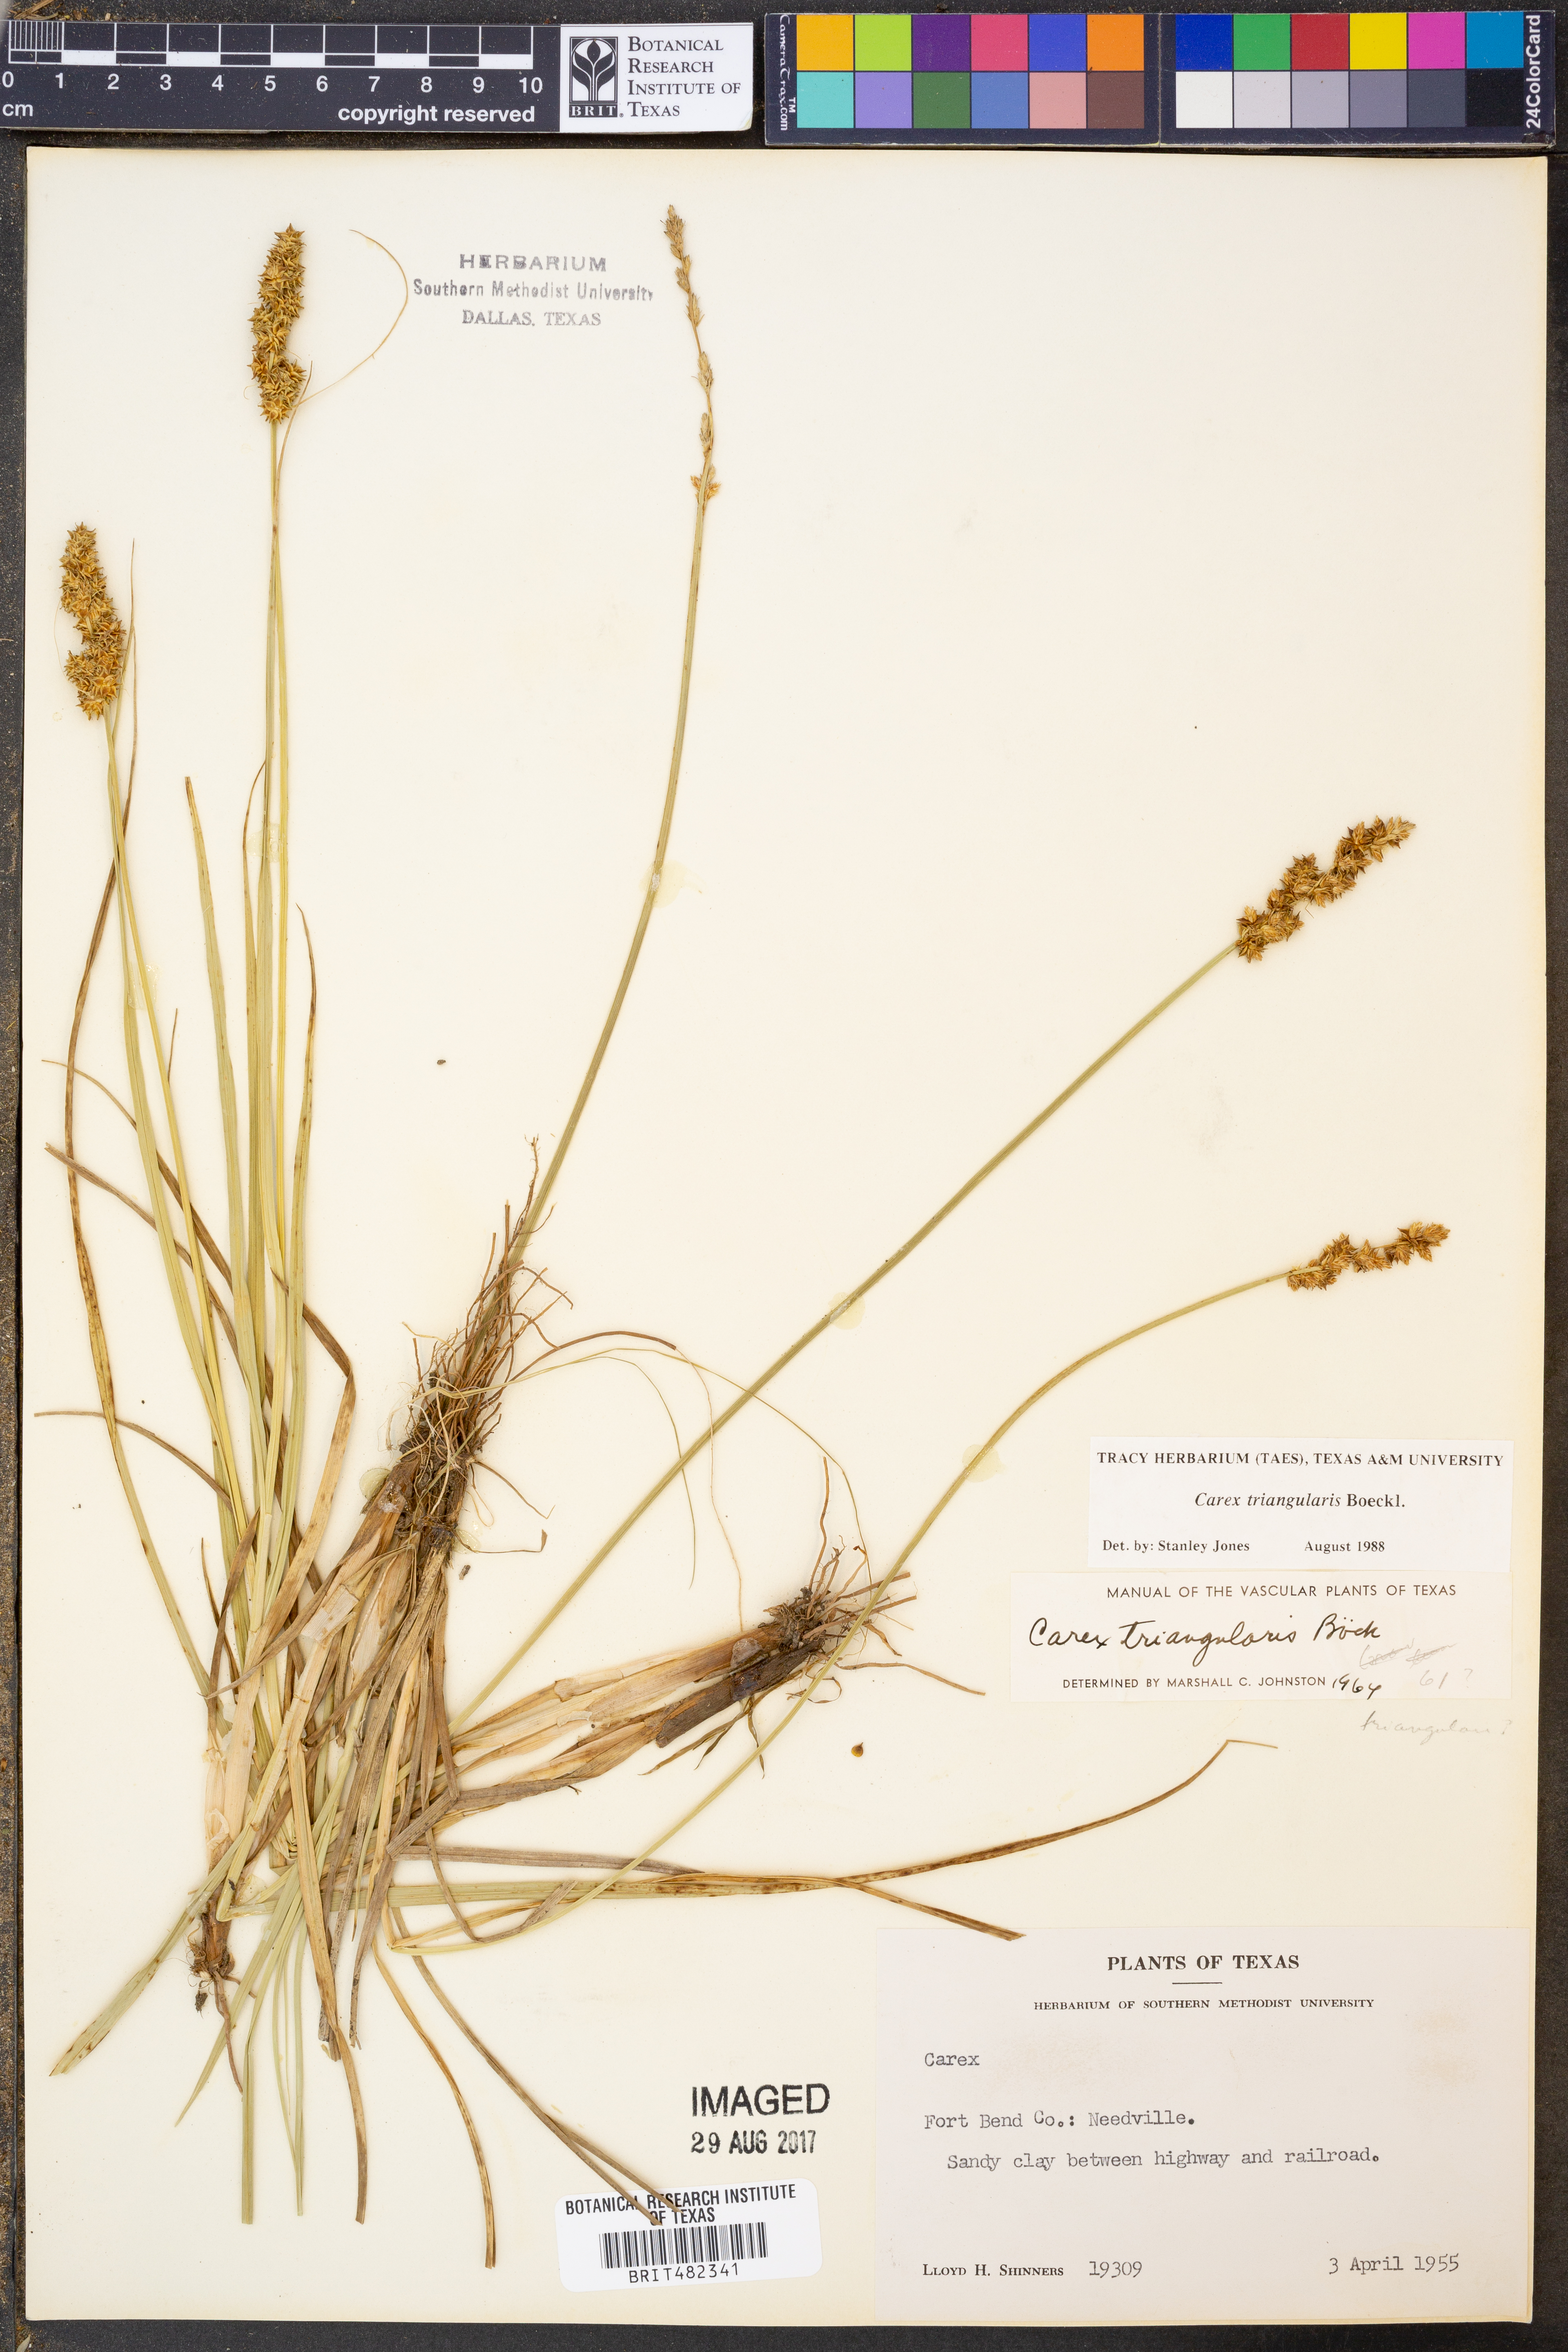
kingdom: Plantae
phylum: Tracheophyta
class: Liliopsida
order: Poales
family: Cyperaceae
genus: Carex
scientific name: Carex triangularis
